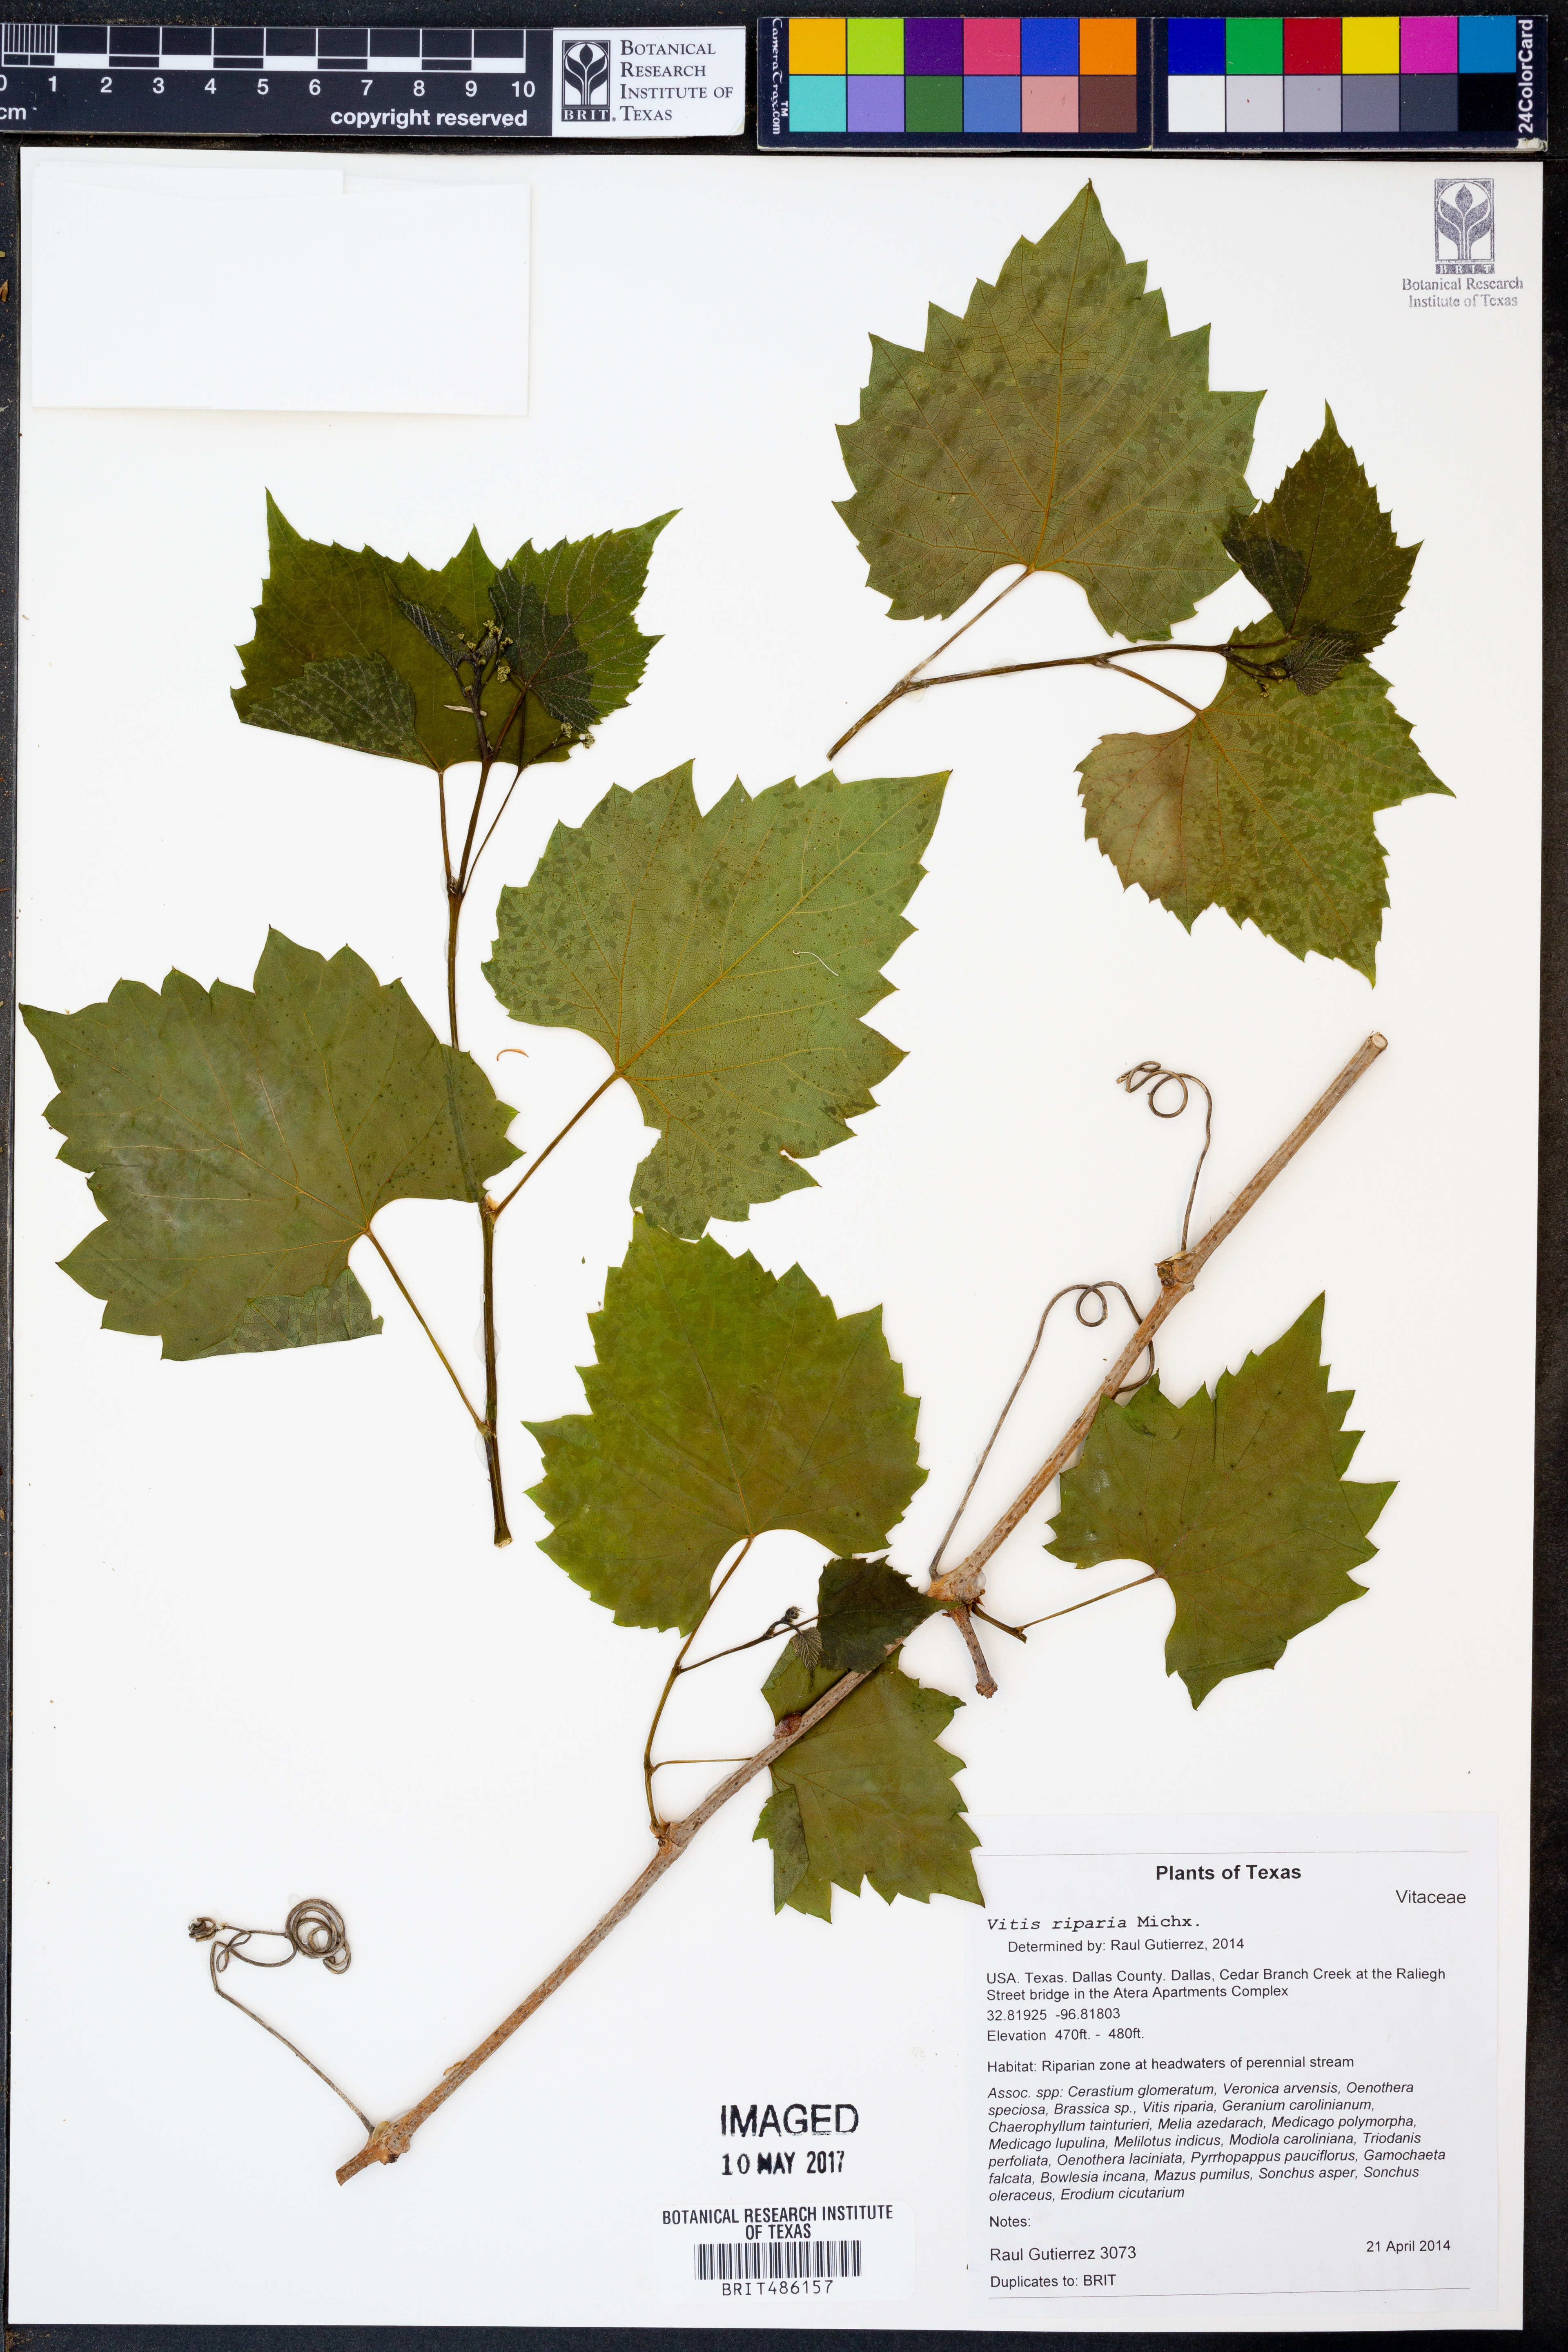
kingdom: Plantae
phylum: Tracheophyta
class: Magnoliopsida
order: Vitales
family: Vitaceae
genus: Vitis
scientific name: Vitis riparia
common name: Frost grape
